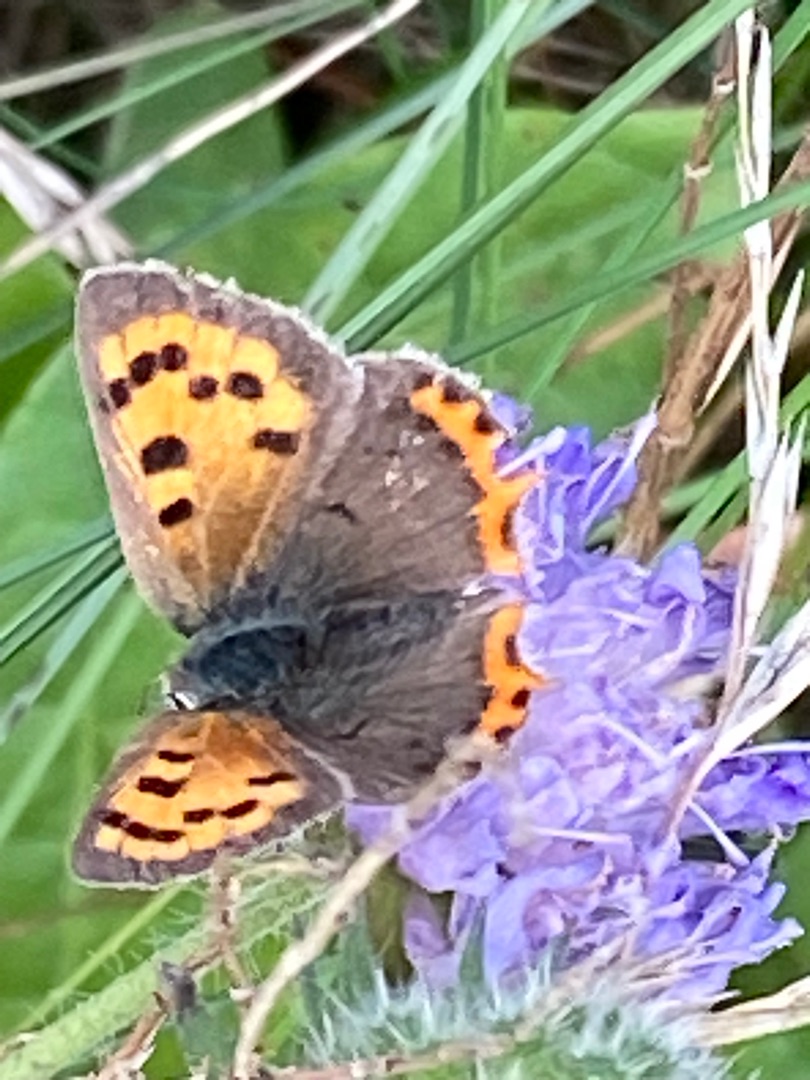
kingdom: Animalia
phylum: Arthropoda
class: Insecta
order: Lepidoptera
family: Lycaenidae
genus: Lycaena
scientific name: Lycaena phlaeas
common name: Lille ildfugl
